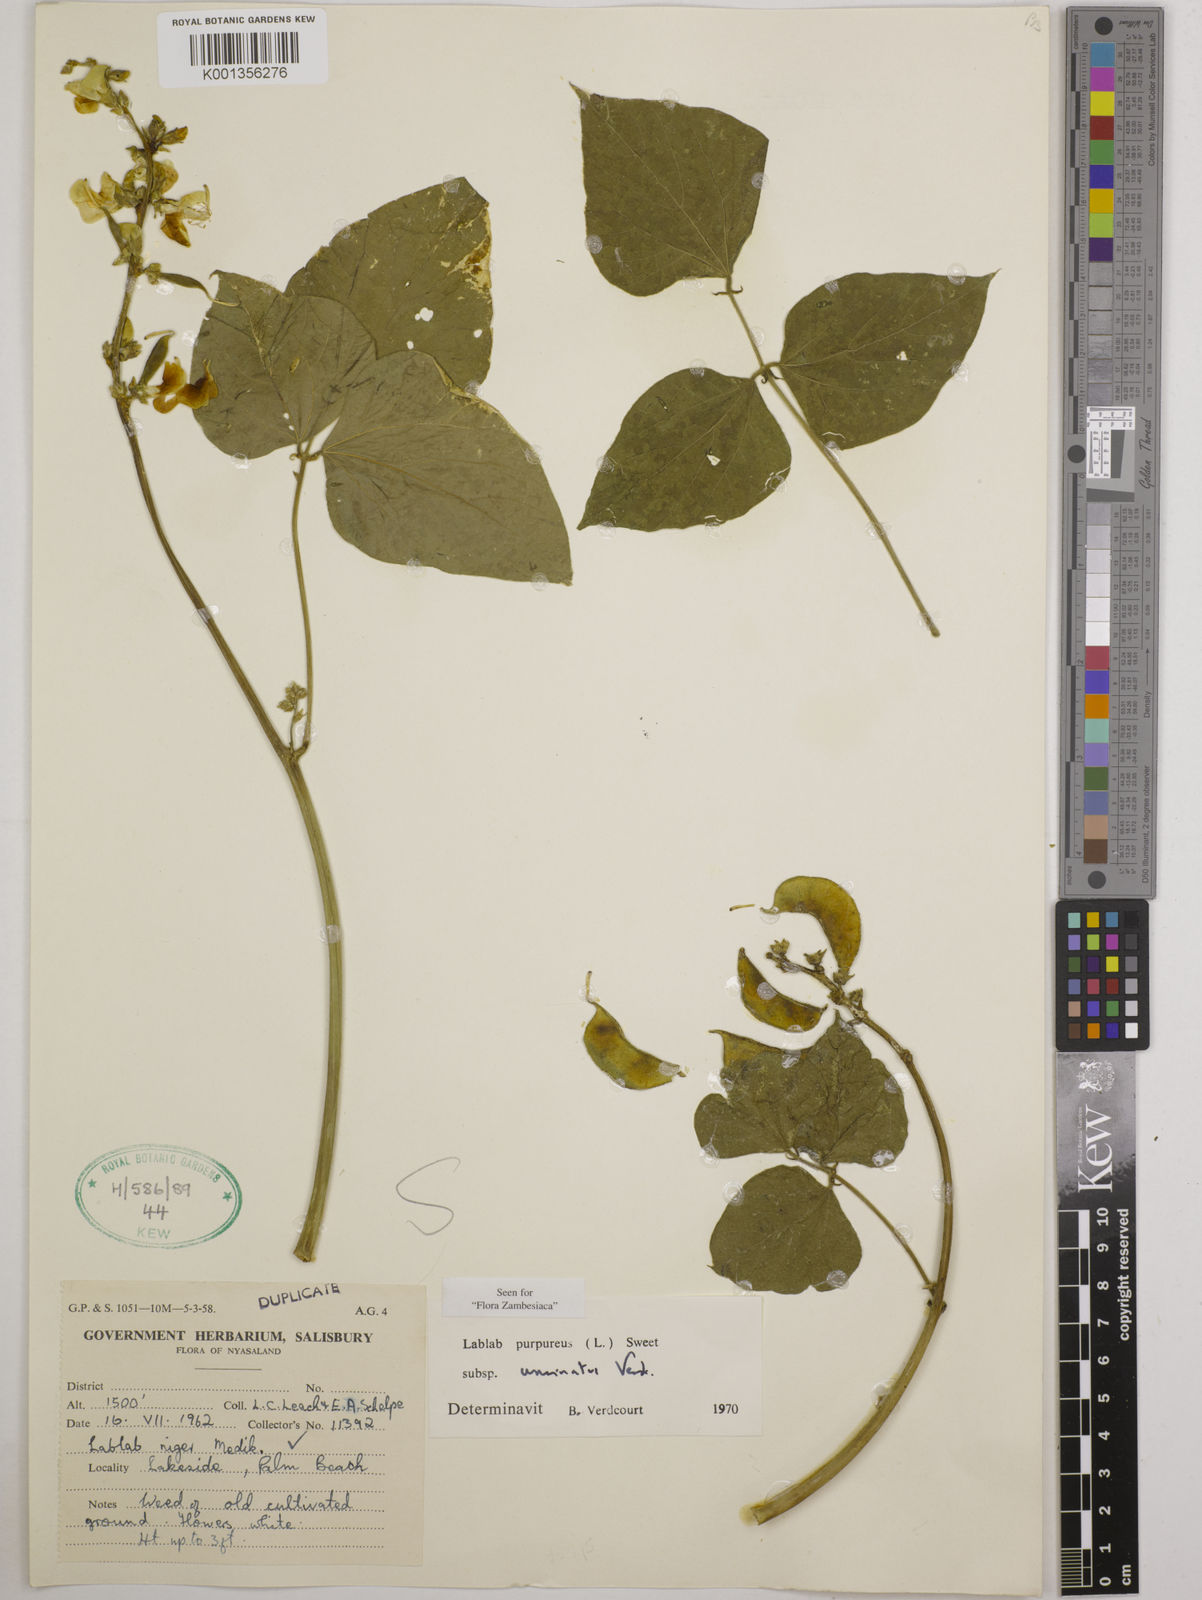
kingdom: Plantae
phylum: Tracheophyta
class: Magnoliopsida
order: Fabales
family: Fabaceae
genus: Lablab
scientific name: Lablab
